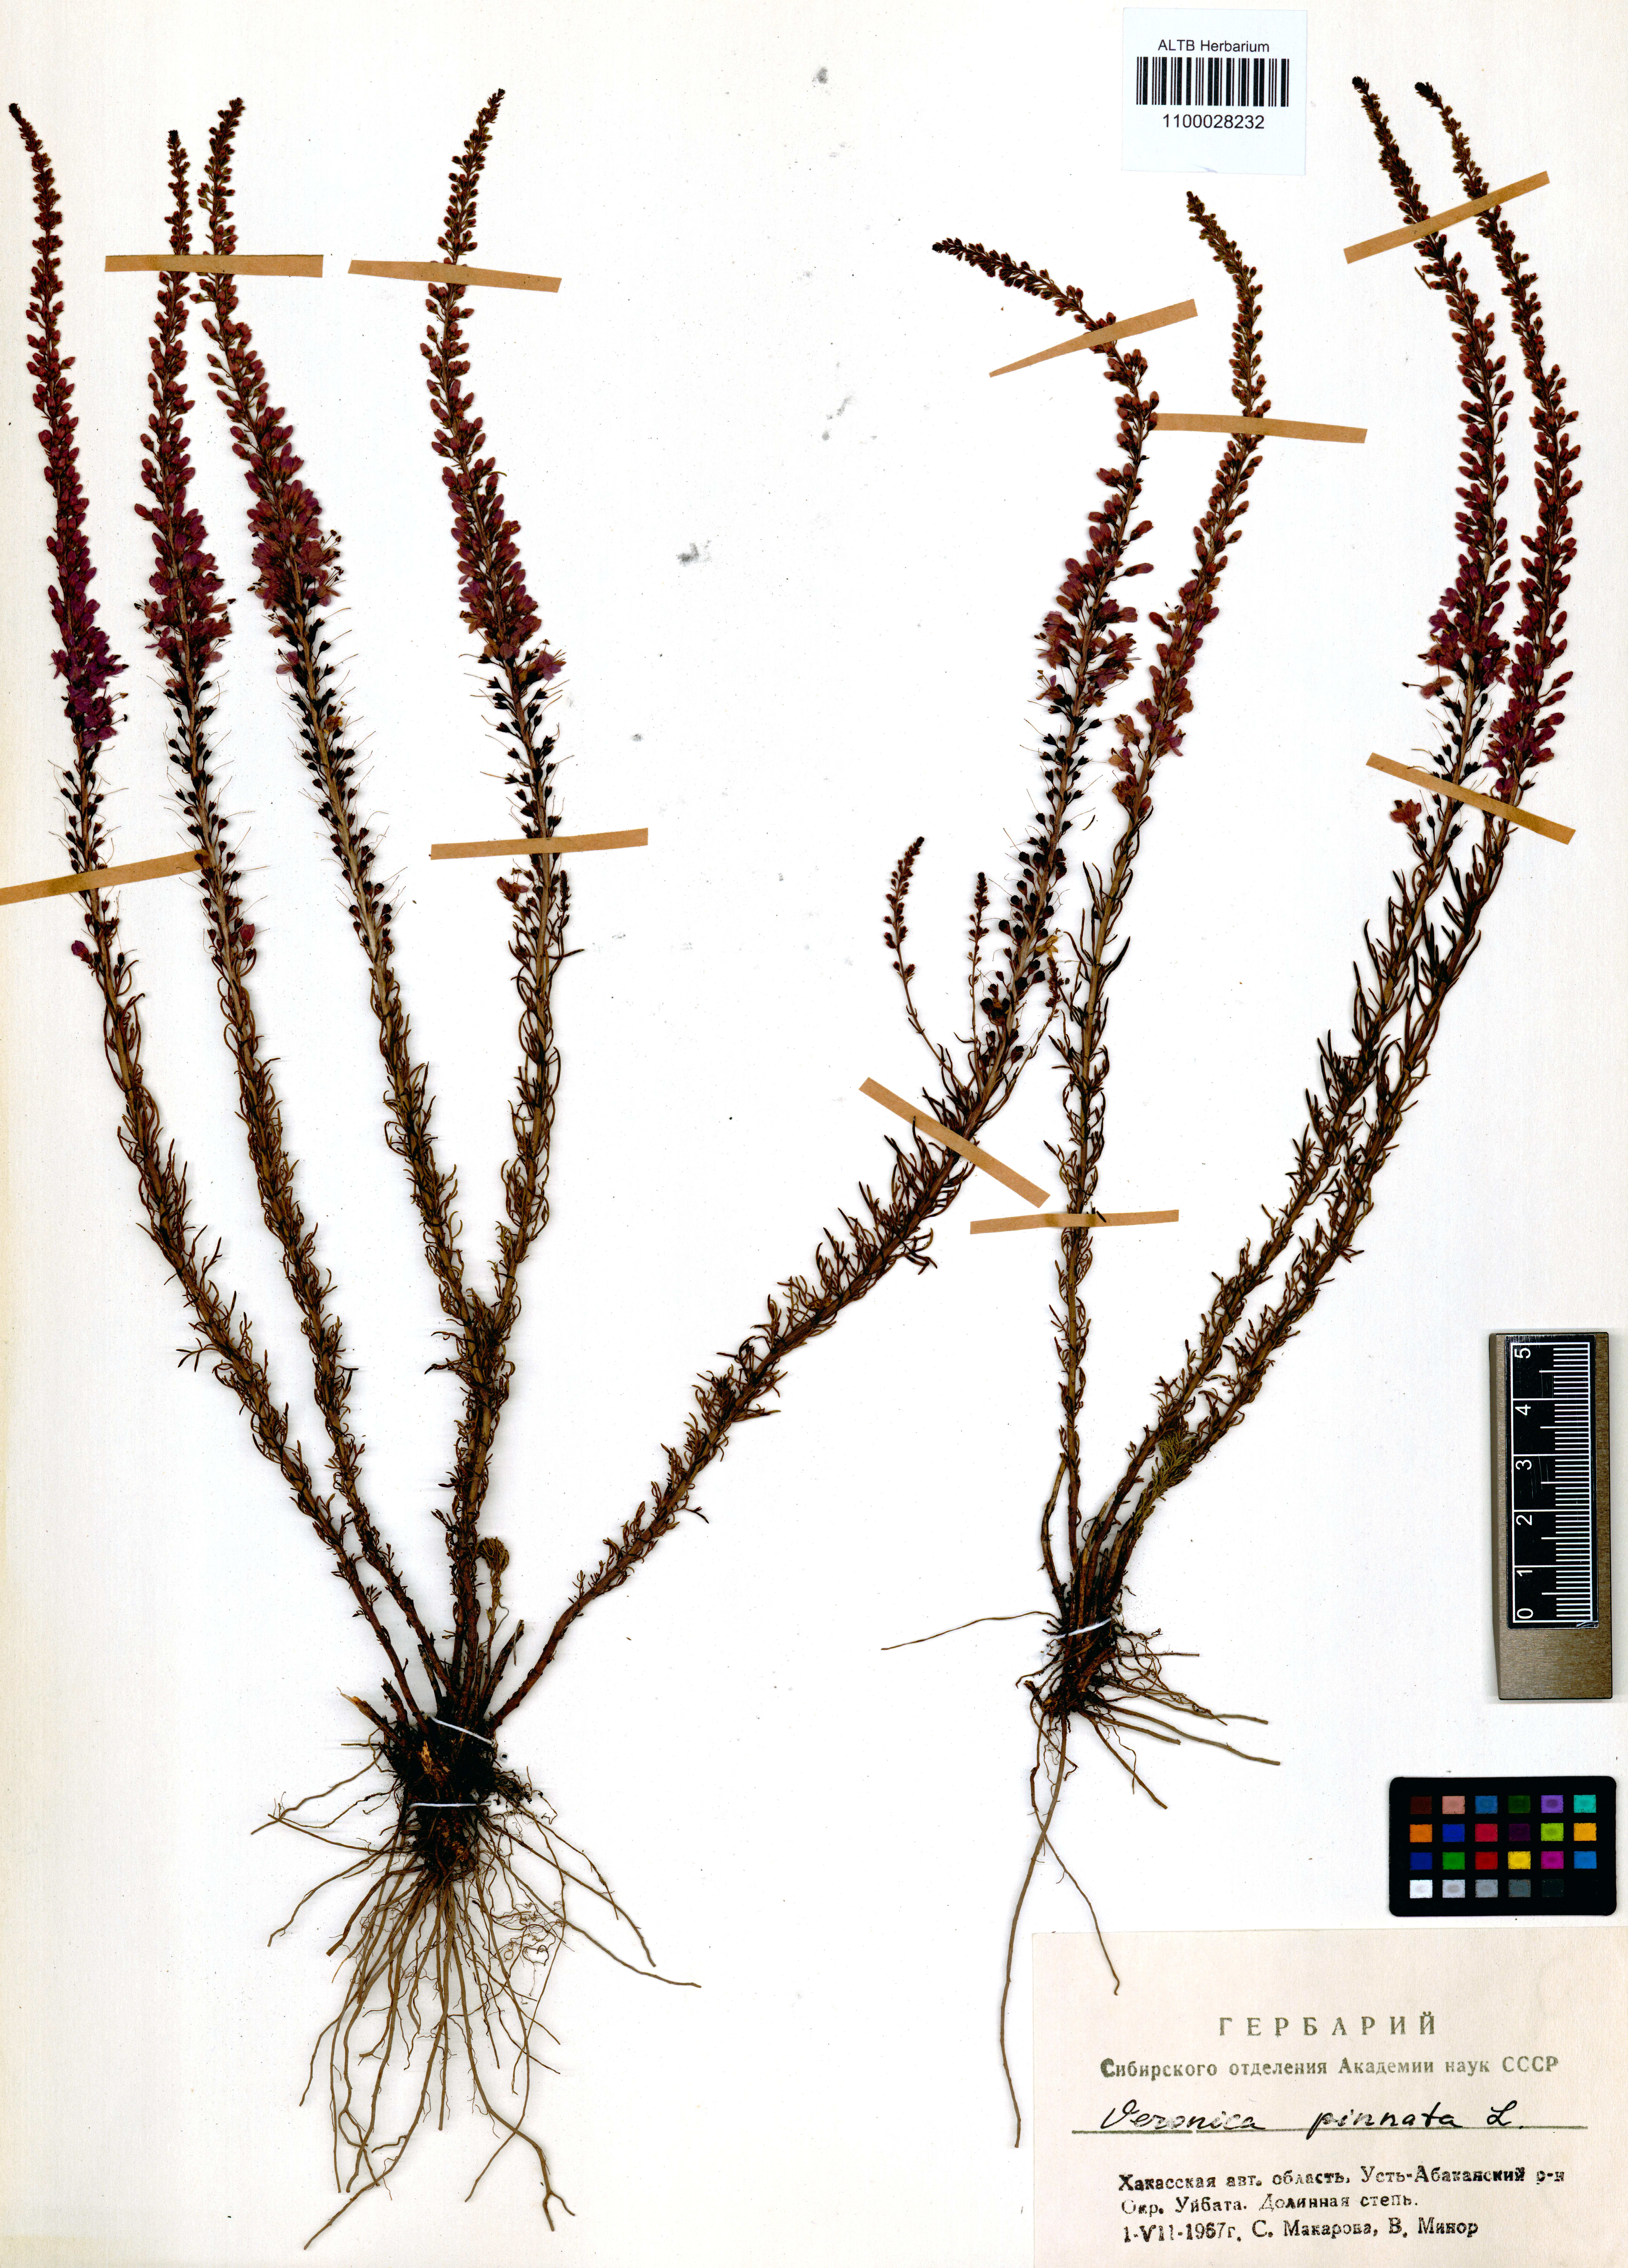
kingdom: Plantae
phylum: Tracheophyta
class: Magnoliopsida
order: Lamiales
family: Plantaginaceae
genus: Veronica
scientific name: Veronica pinnata
